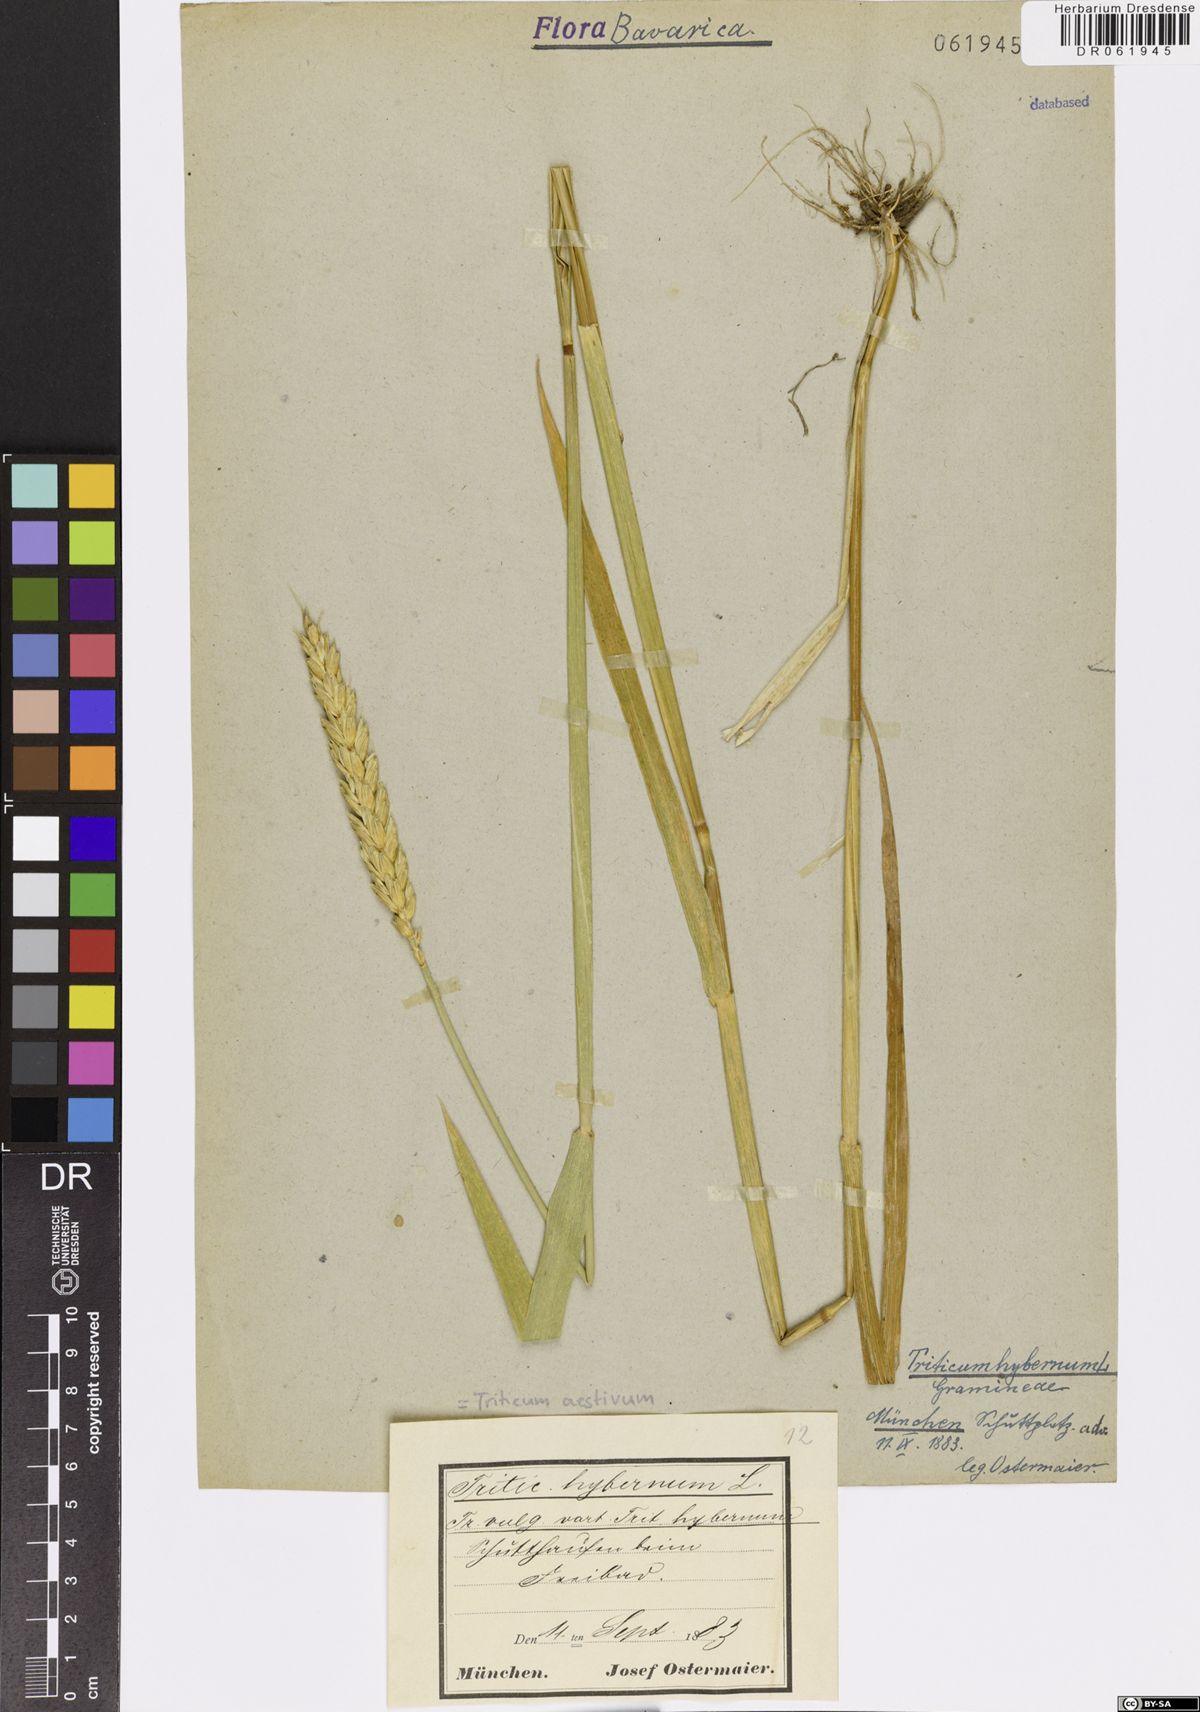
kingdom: Plantae
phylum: Tracheophyta
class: Liliopsida
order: Poales
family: Poaceae
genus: Triticum
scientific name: Triticum aestivum
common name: Common wheat
